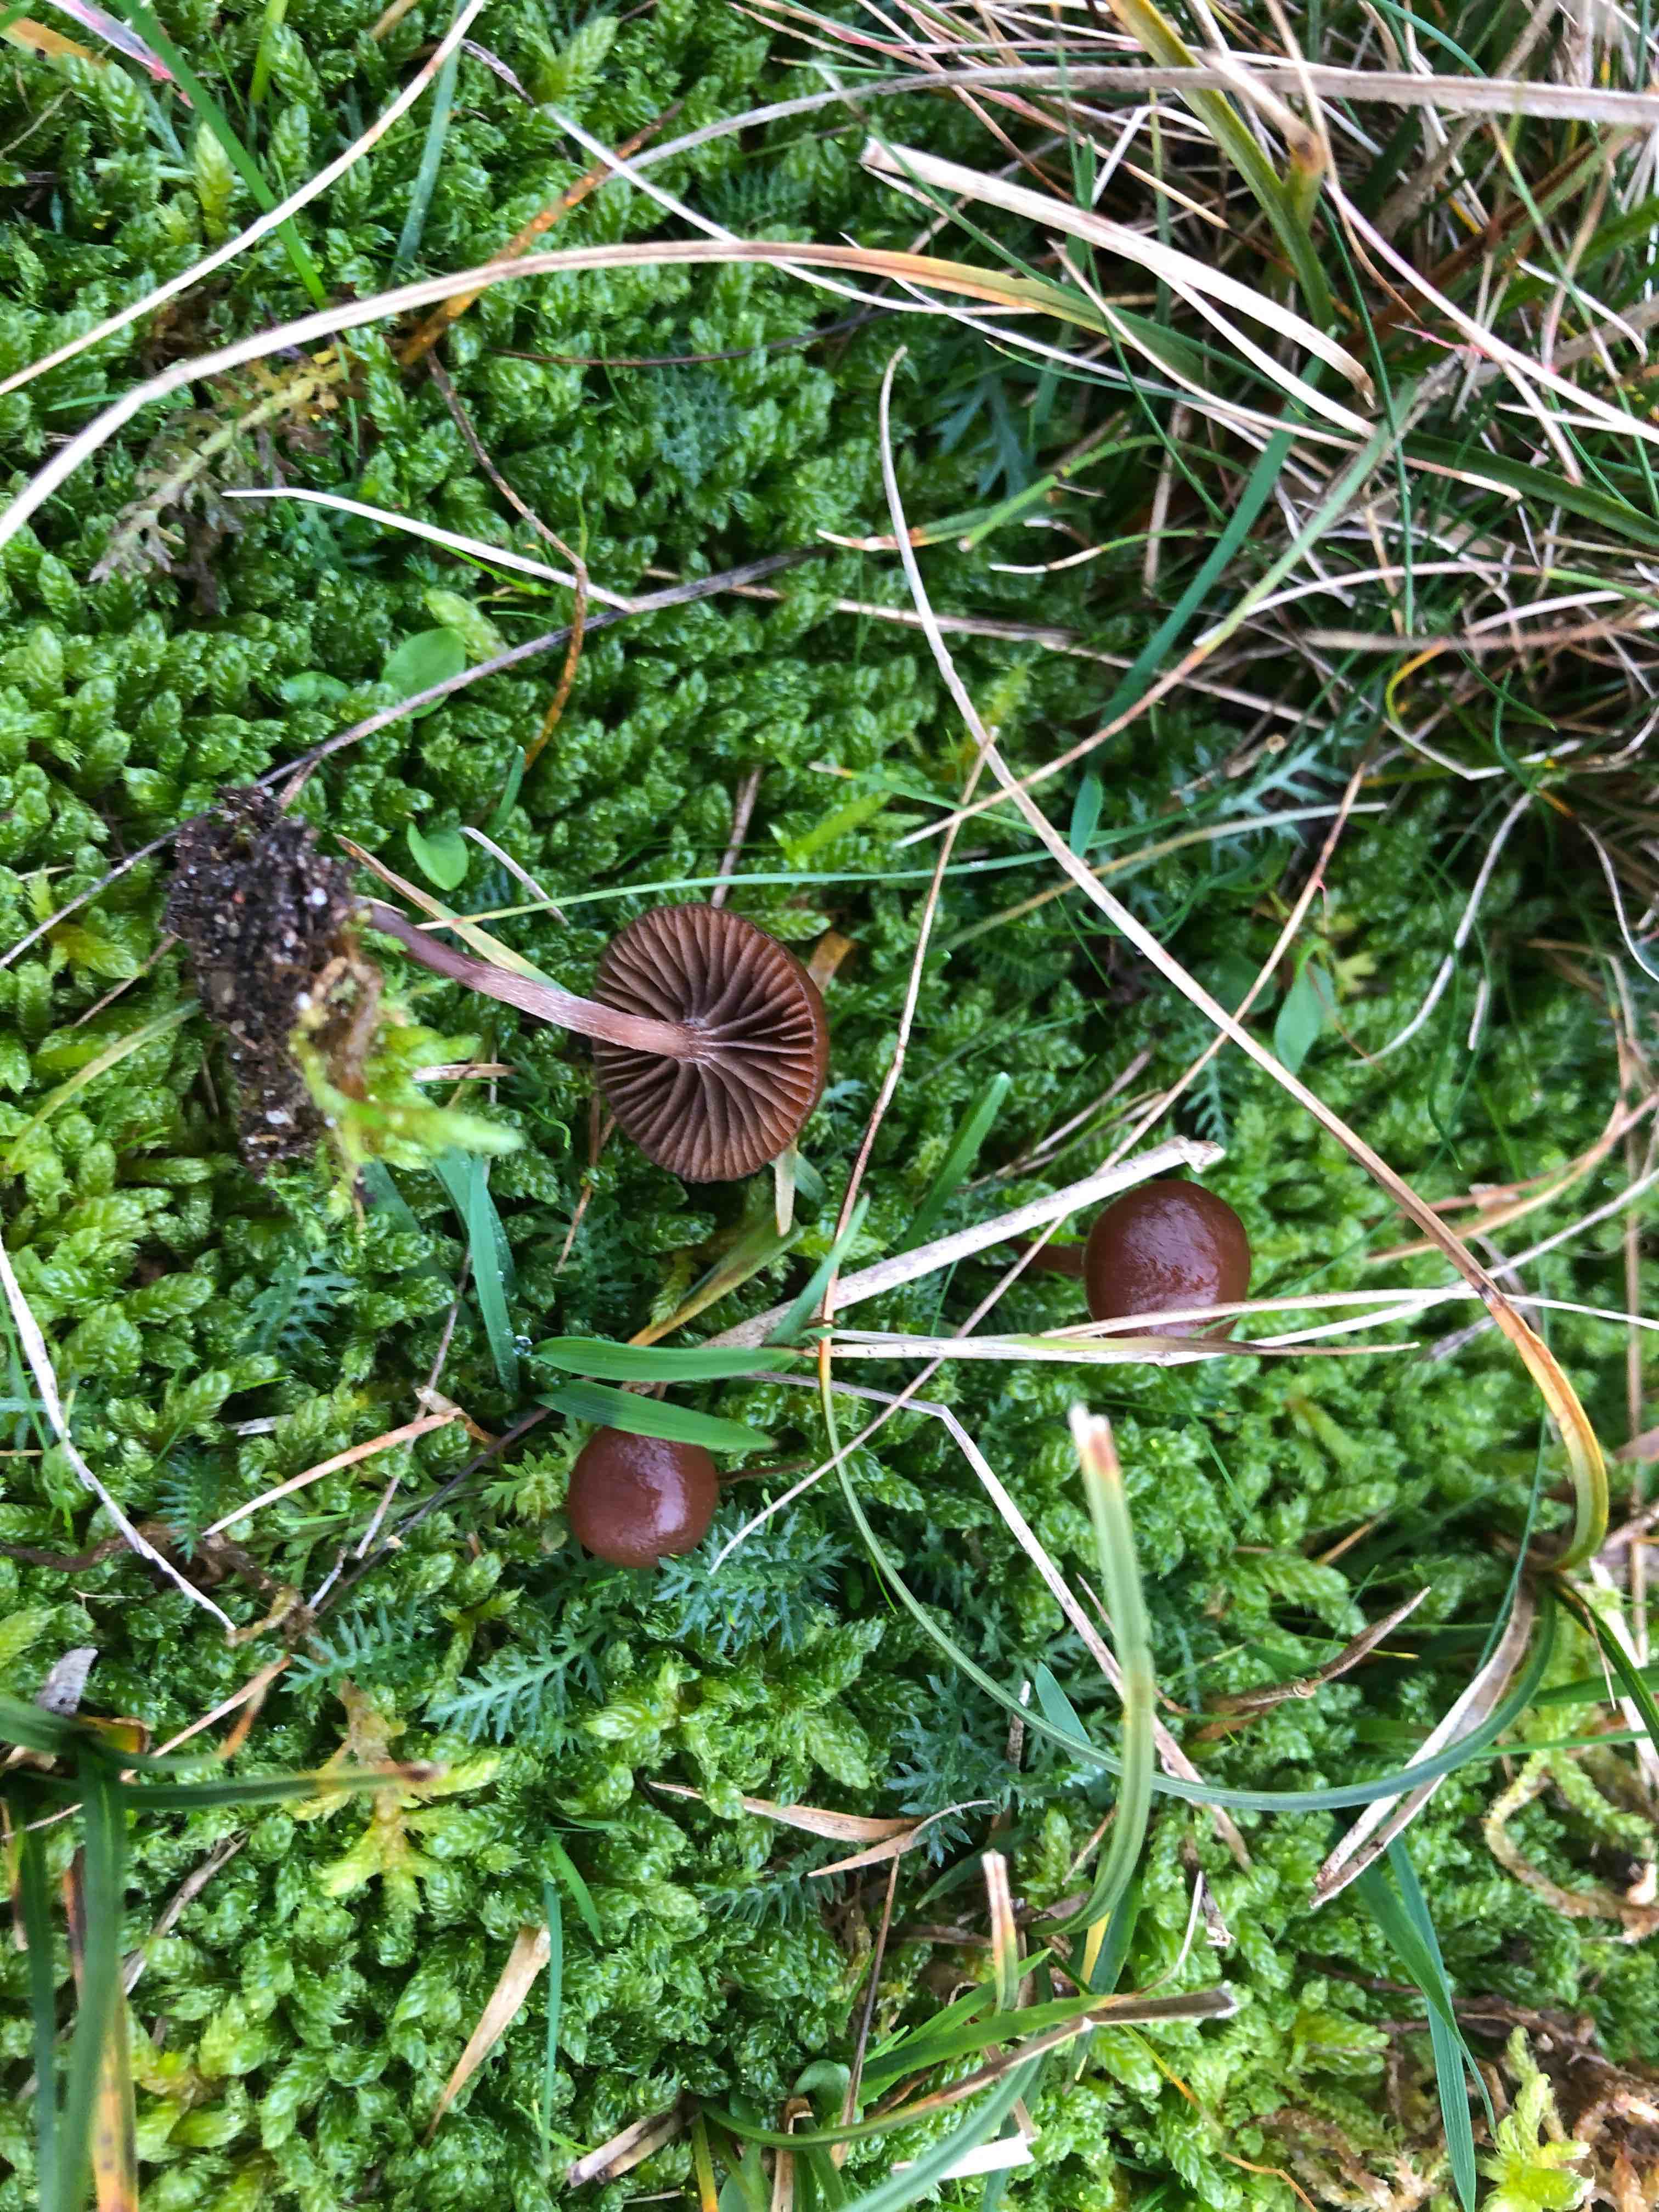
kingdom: Fungi
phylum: Basidiomycota
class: Agaricomycetes
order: Agaricales
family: Strophariaceae
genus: Deconica
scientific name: Deconica montana
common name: rødbrun stråhat
